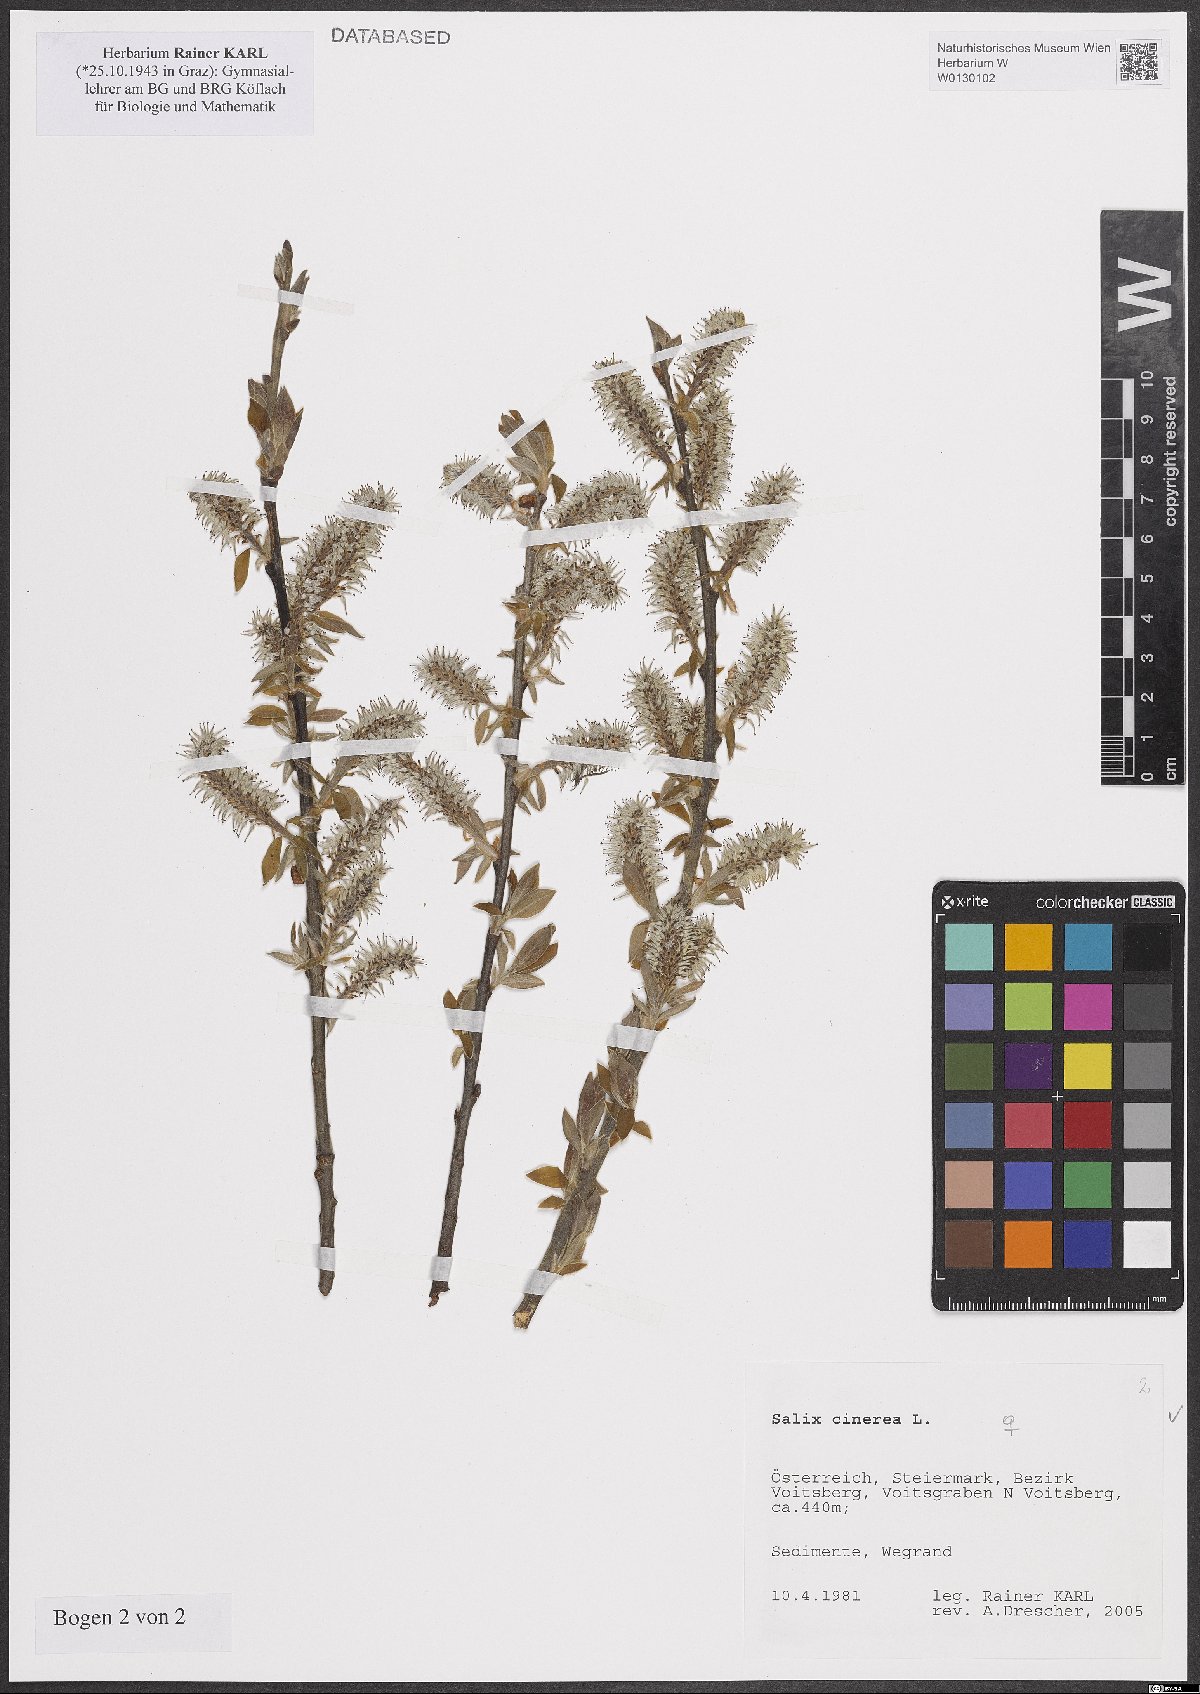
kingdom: Plantae
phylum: Tracheophyta
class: Magnoliopsida
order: Malpighiales
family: Salicaceae
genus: Salix
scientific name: Salix cinerea
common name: Common sallow
